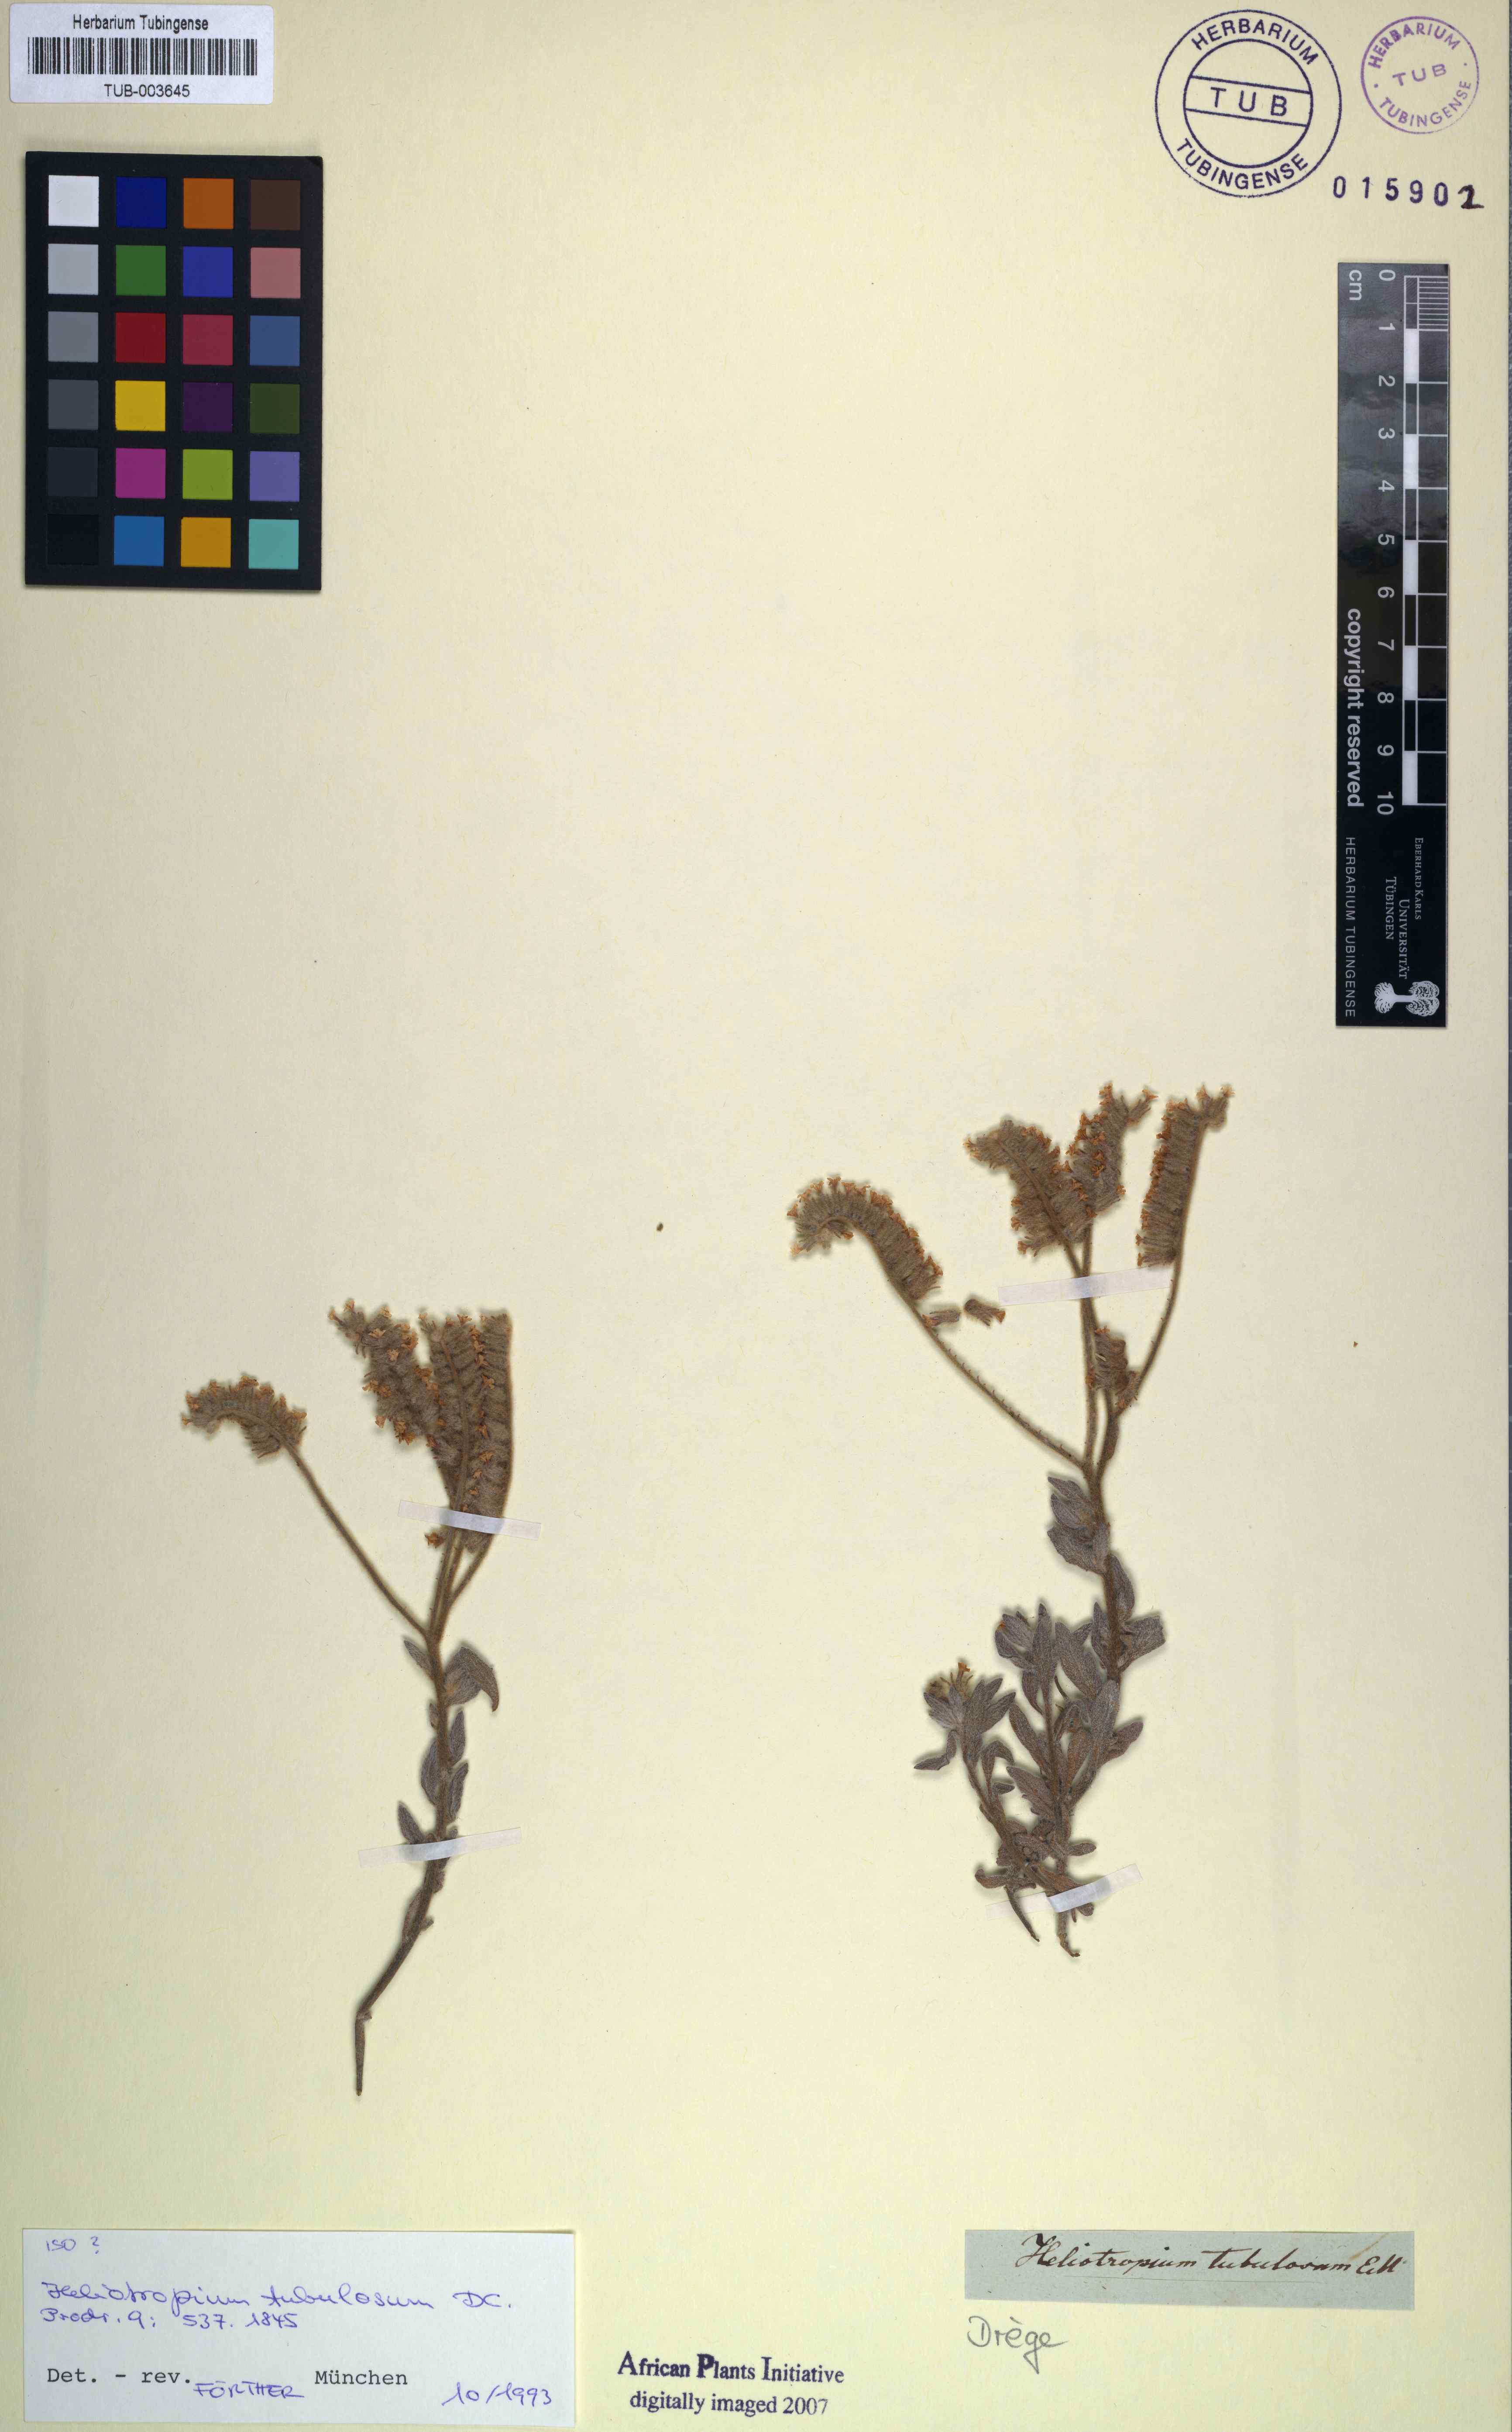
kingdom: Plantae
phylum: Tracheophyta
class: Magnoliopsida
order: Boraginales
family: Heliotropiaceae
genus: Heliotropium
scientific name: Heliotropium tubulosum
